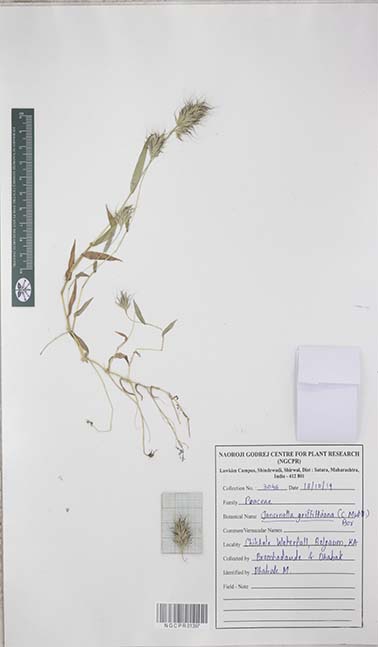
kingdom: Plantae
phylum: Tracheophyta
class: Liliopsida
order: Poales
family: Poaceae
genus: Jansenella
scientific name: Jansenella griffithiana
